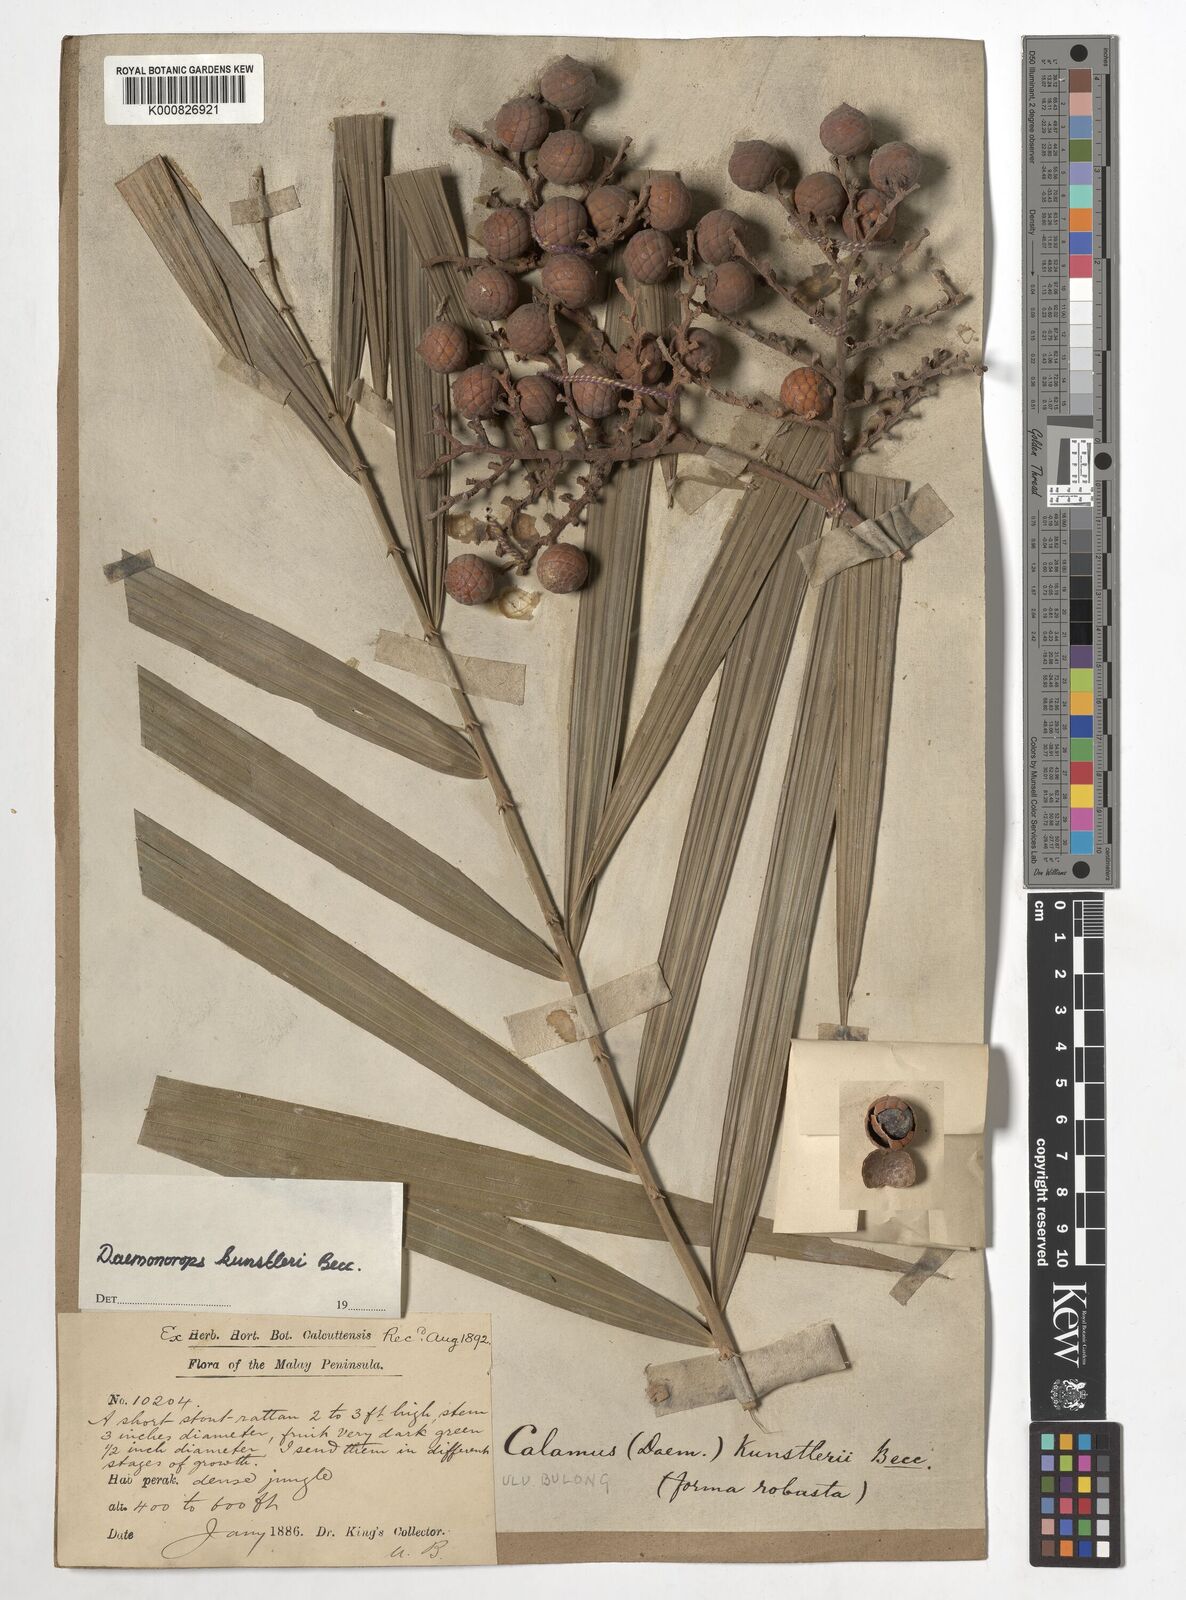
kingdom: Plantae
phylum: Tracheophyta
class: Liliopsida
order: Arecales
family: Arecaceae
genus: Calamus
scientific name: Calamus kunstleri
